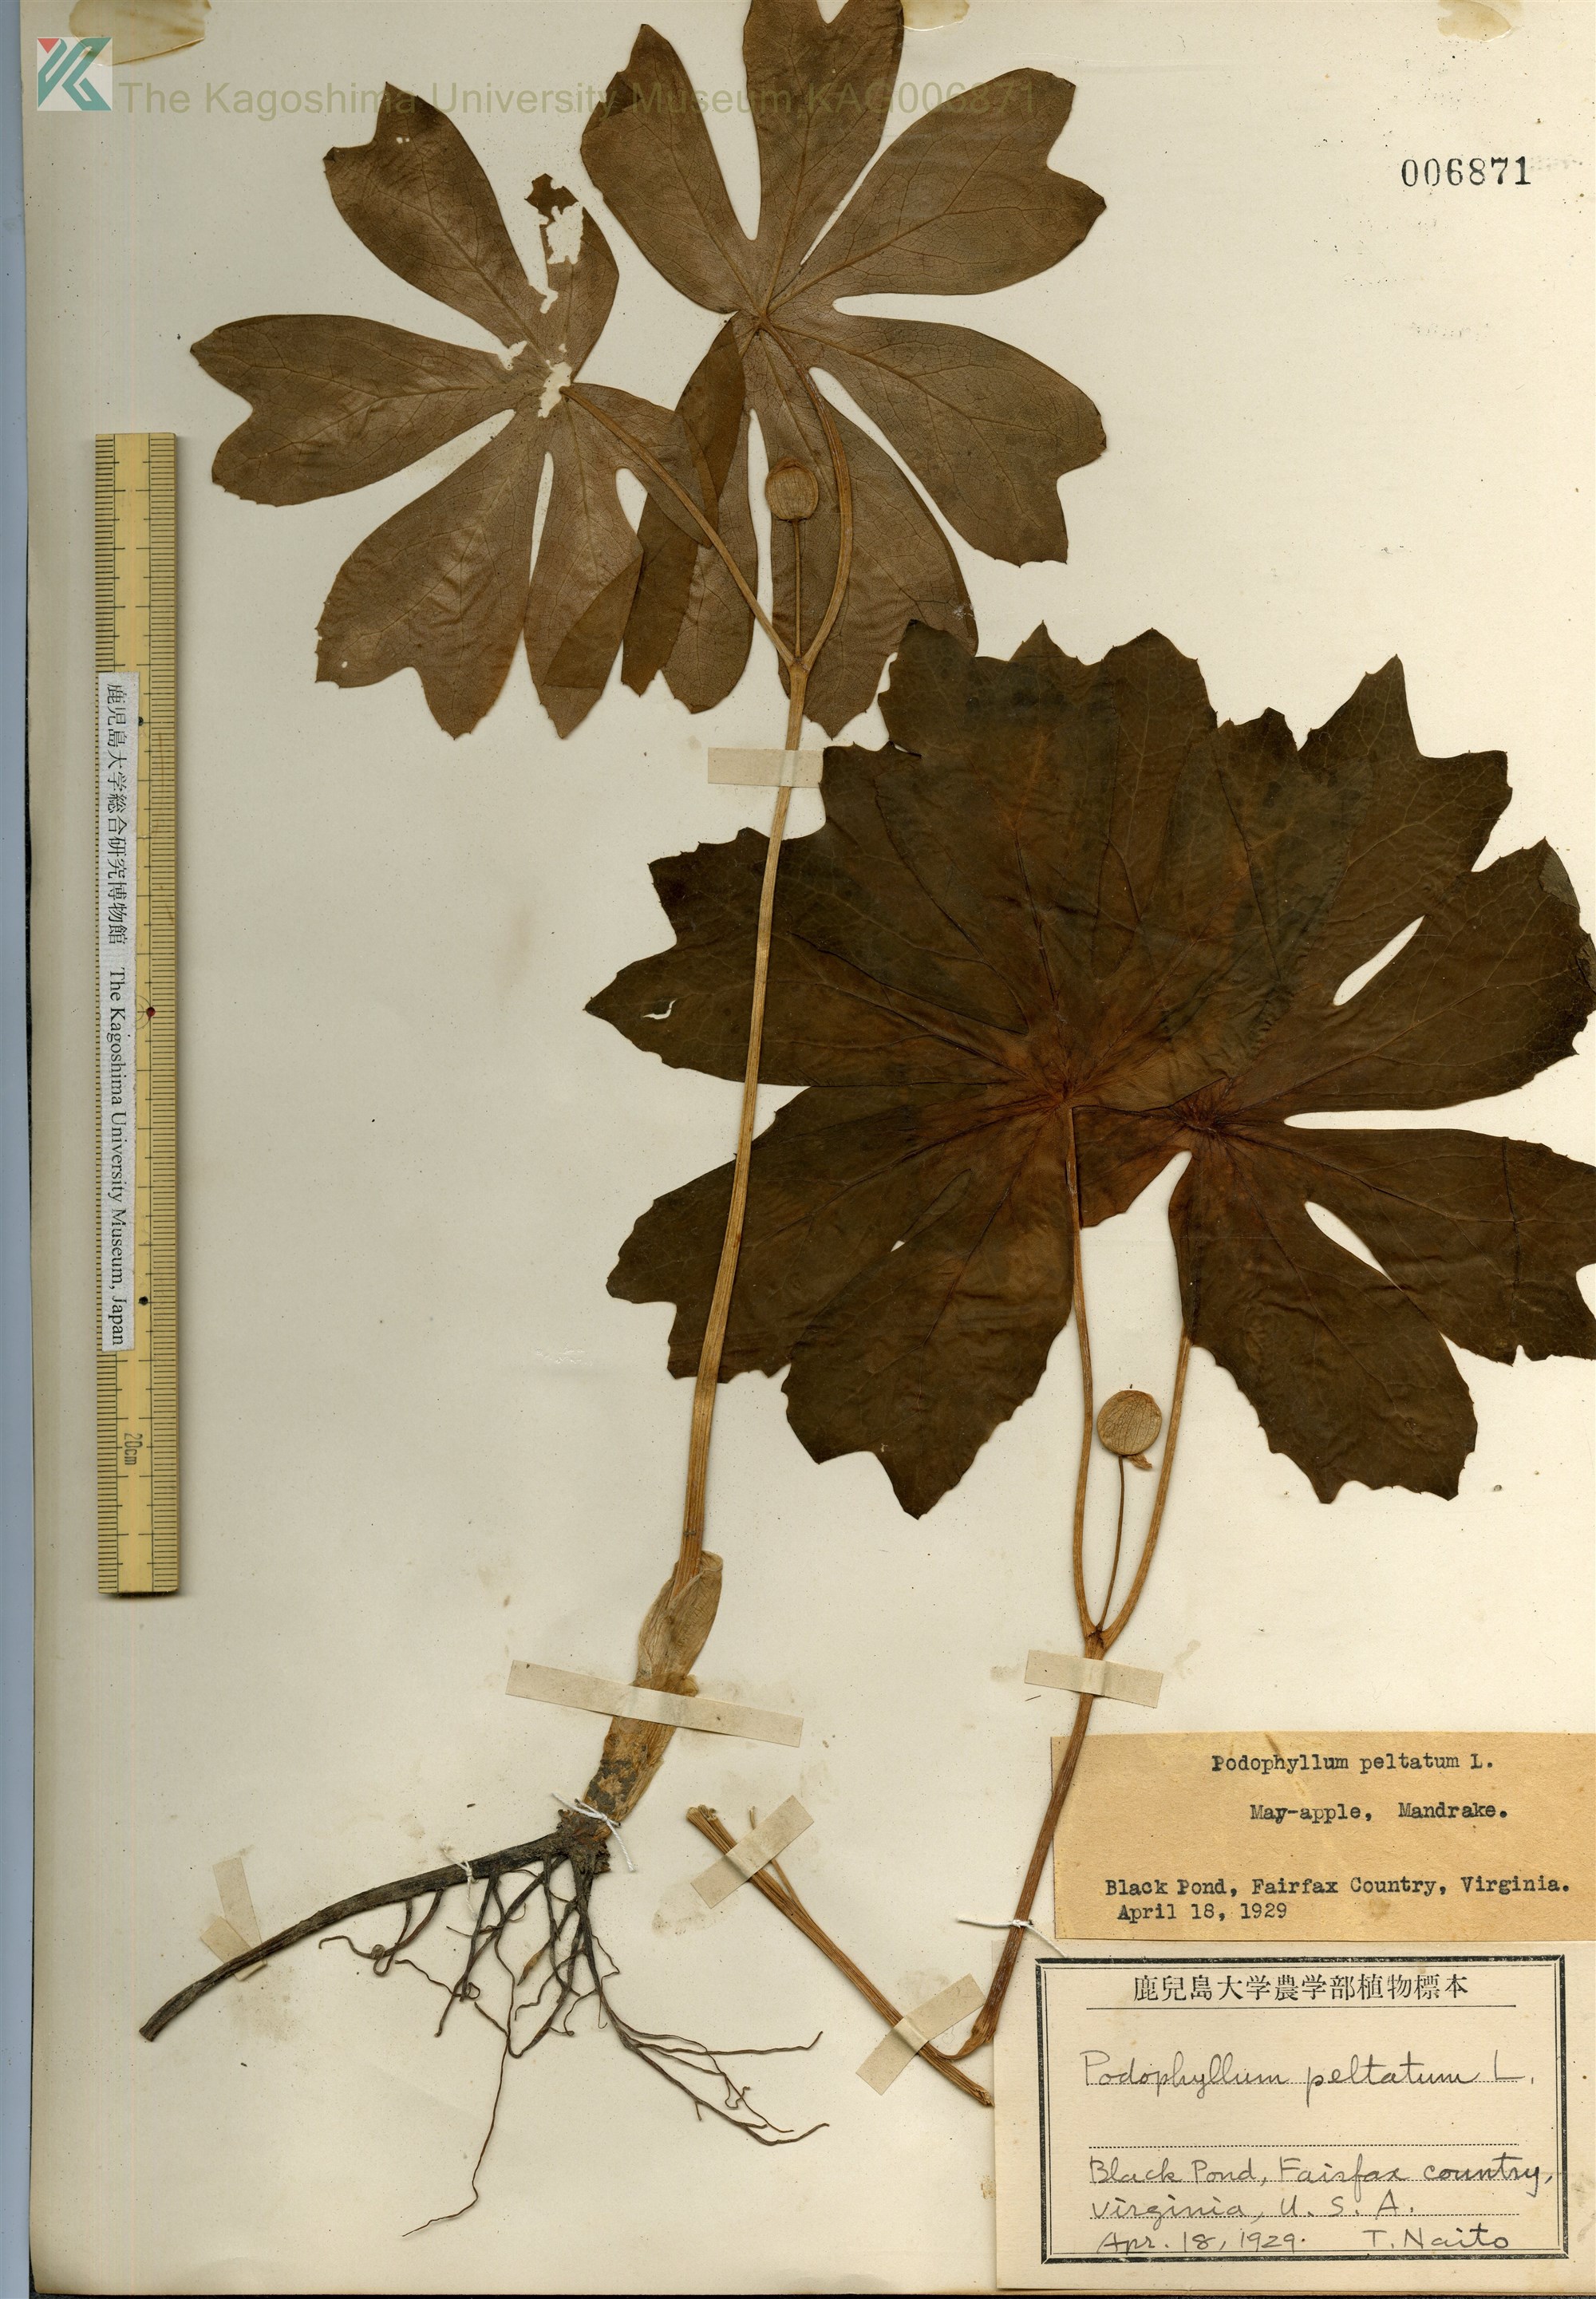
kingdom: Plantae
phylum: Tracheophyta
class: Magnoliopsida
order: Ranunculales
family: Berberidaceae
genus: Podophyllum
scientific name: Podophyllum peltatum
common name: Wild mandrake
